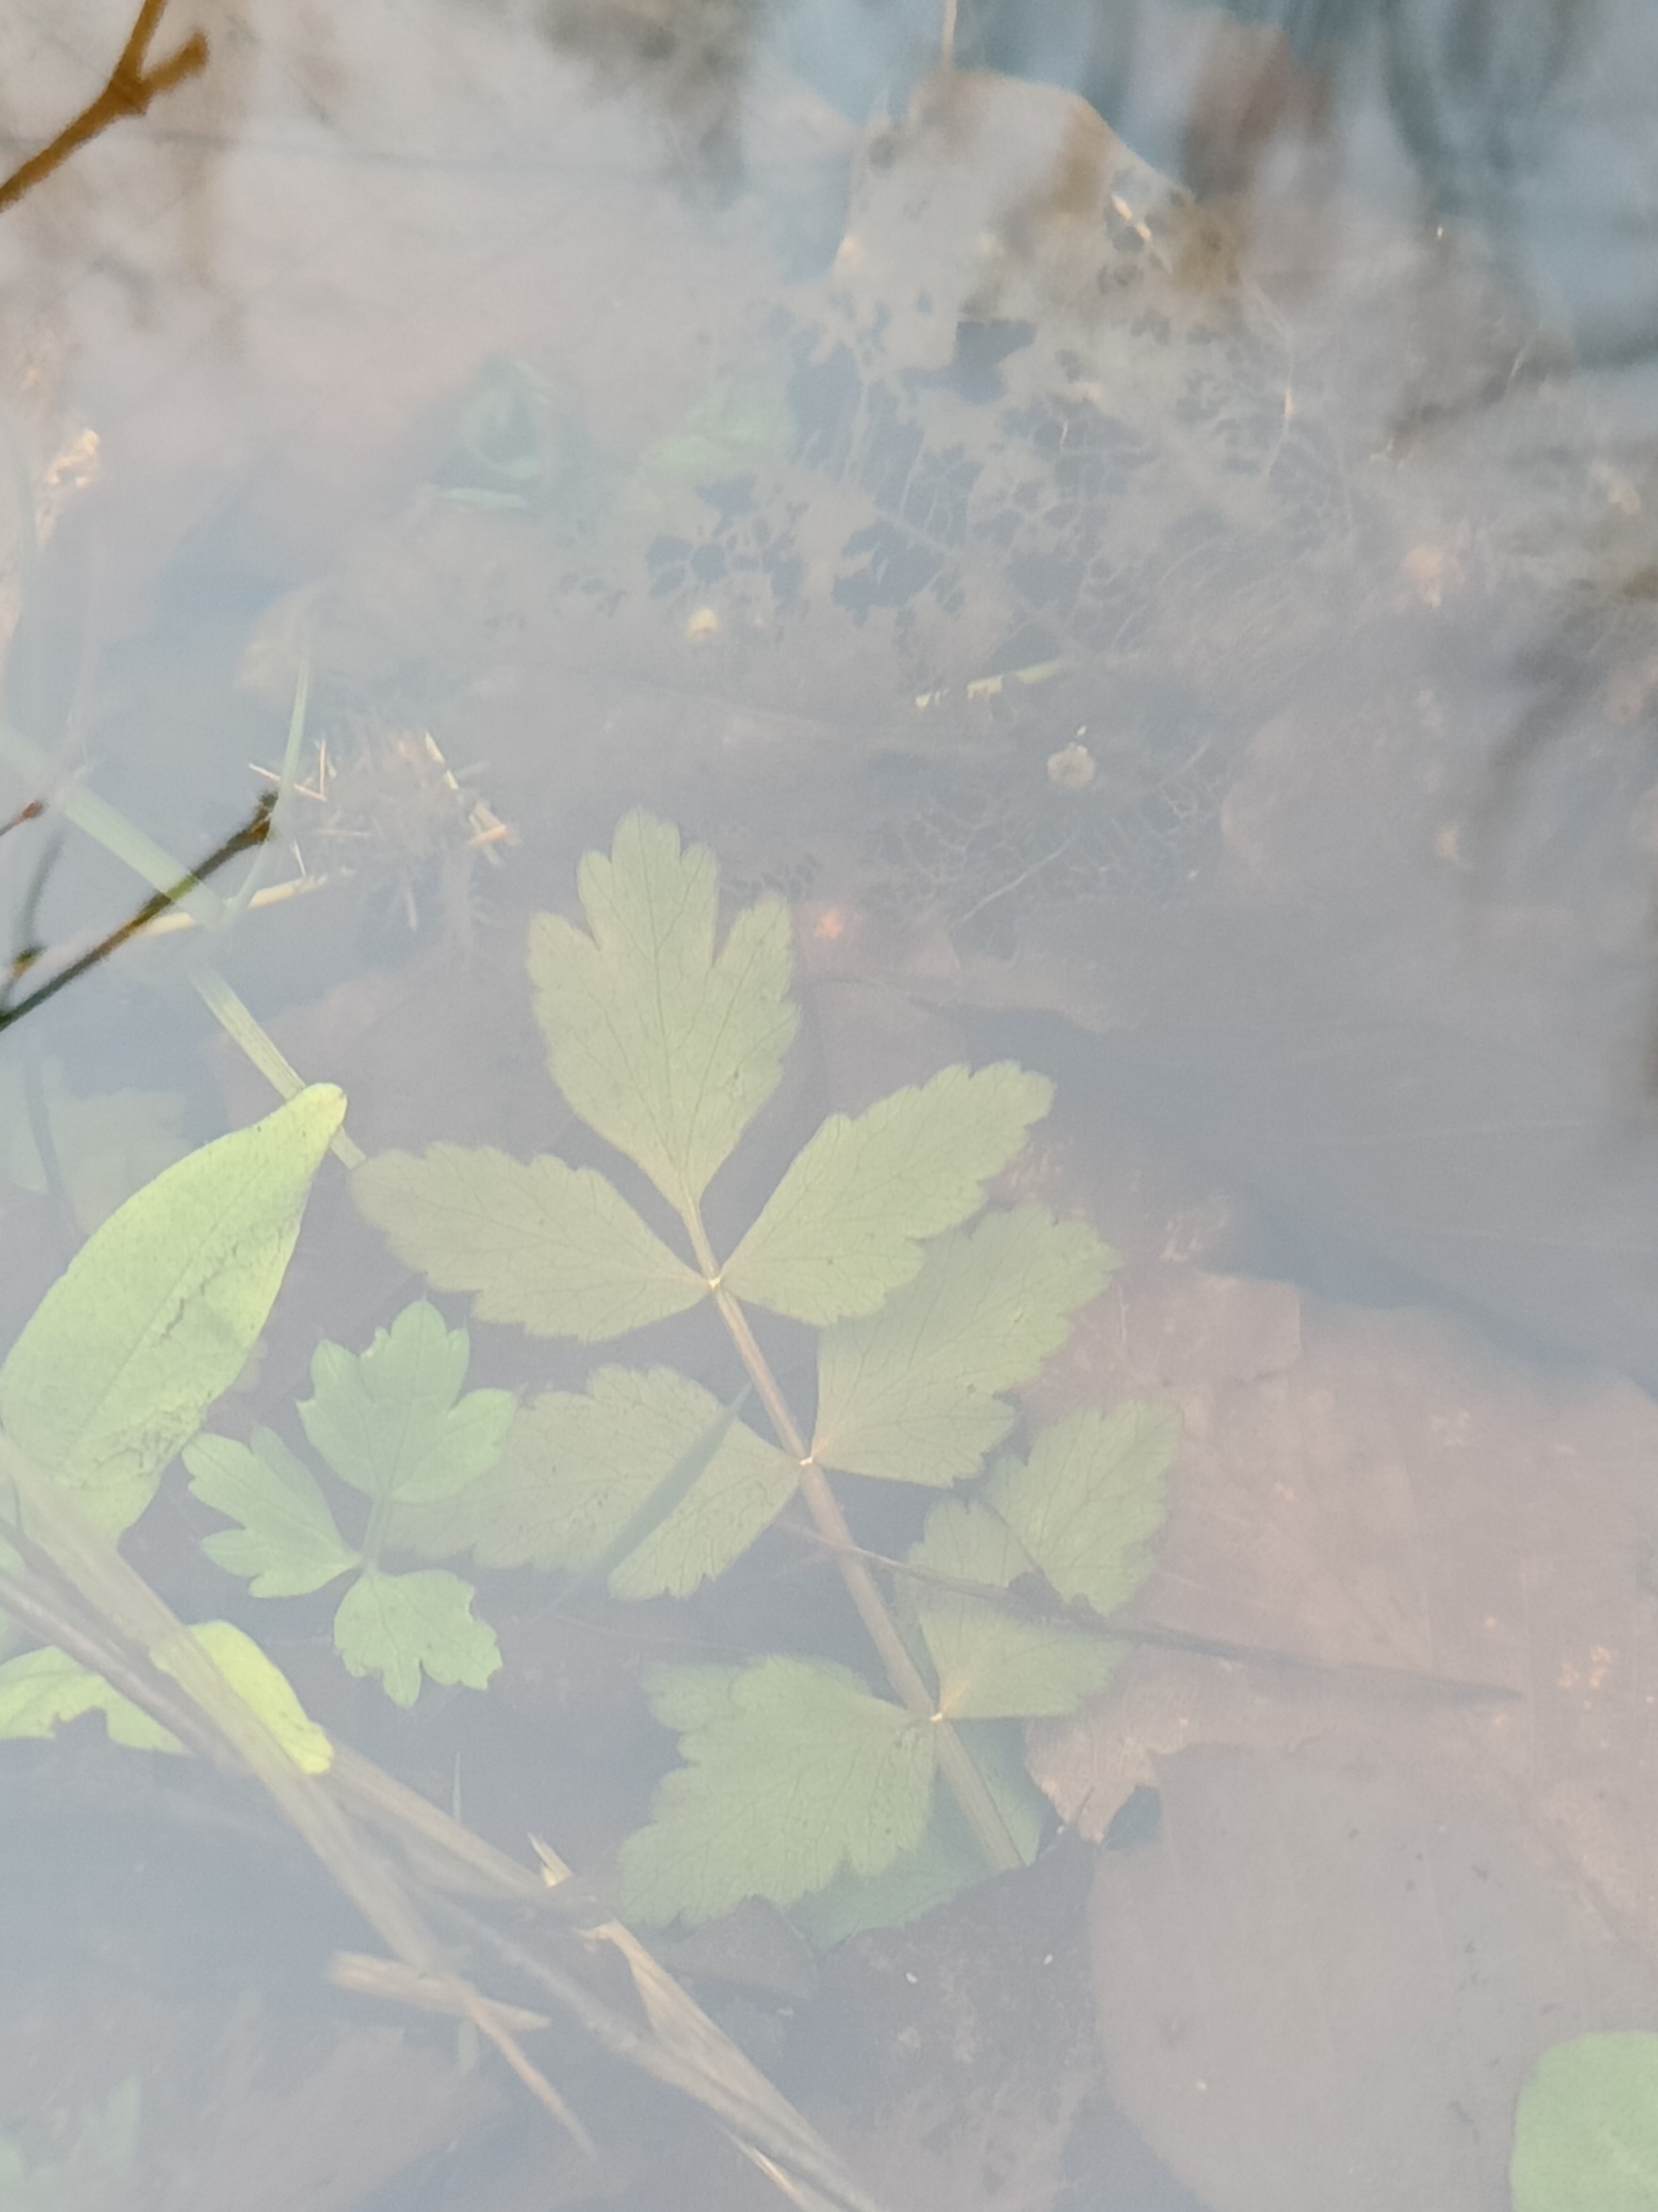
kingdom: Plantae
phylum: Tracheophyta
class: Magnoliopsida
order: Apiales
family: Apiaceae
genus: Berula
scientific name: Berula erecta
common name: Sideskærm
